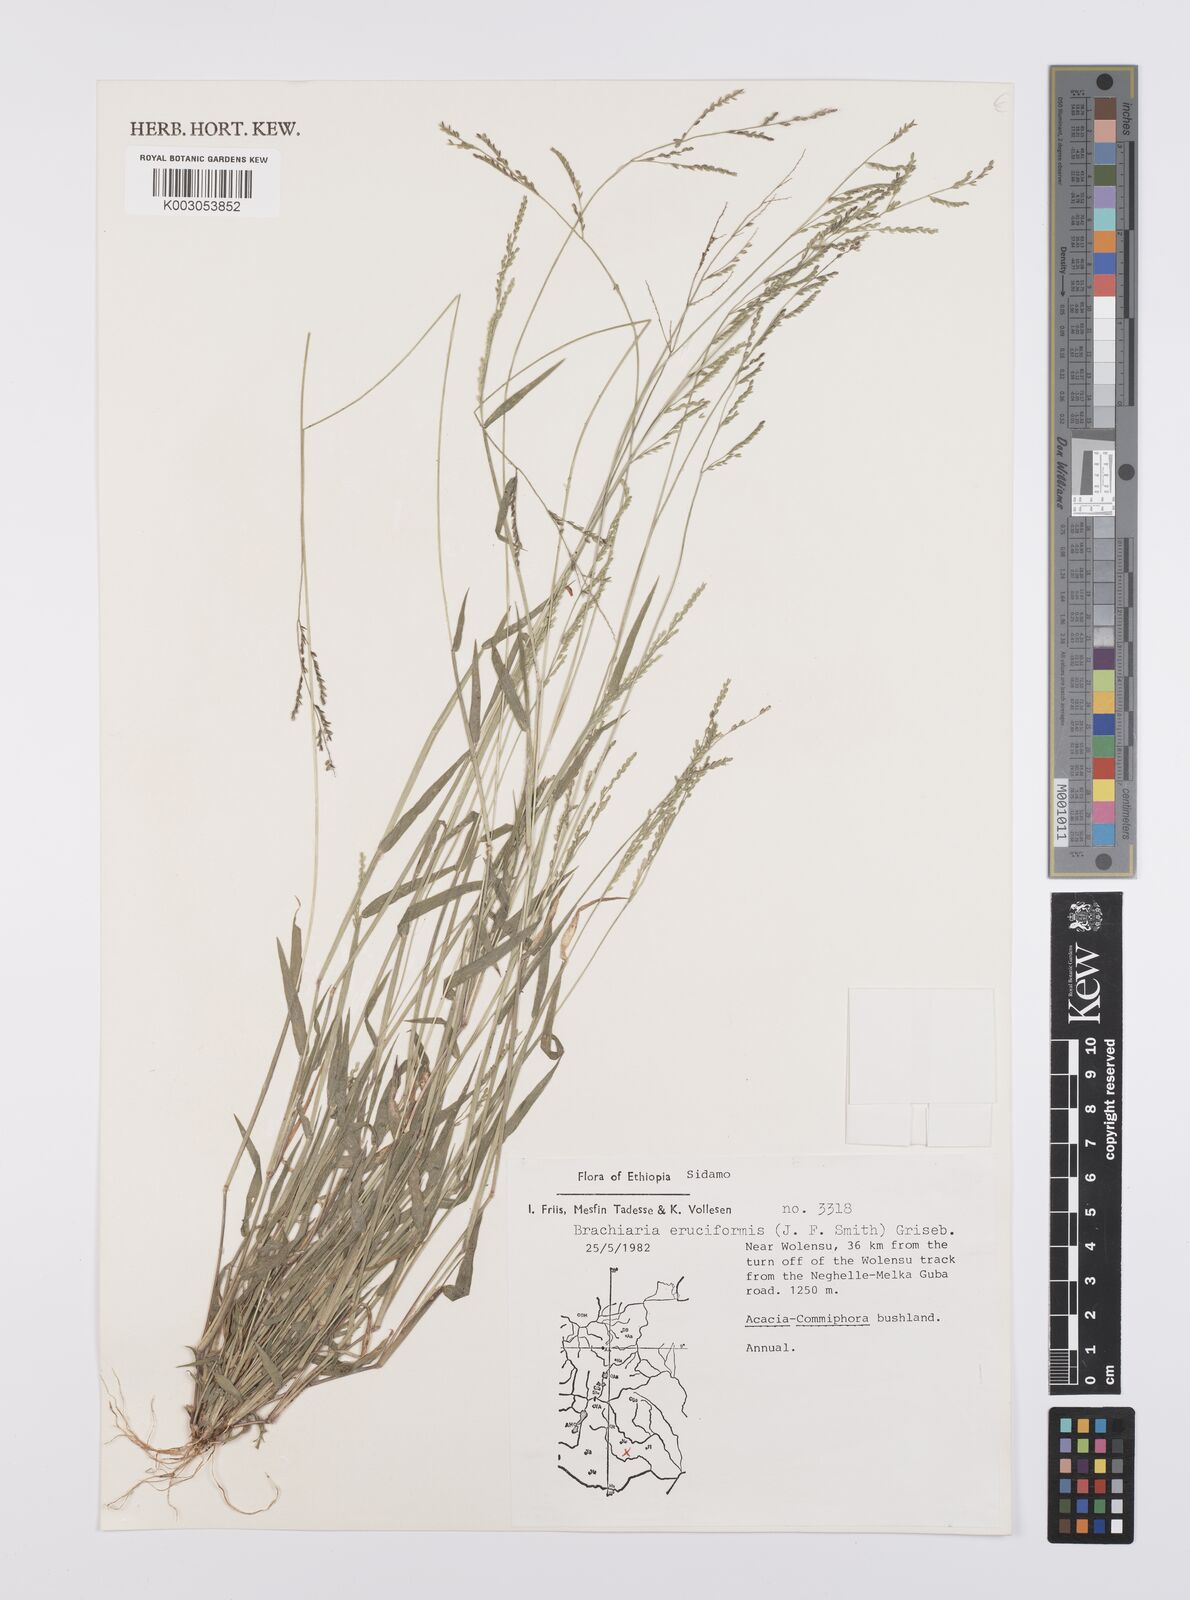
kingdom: Plantae
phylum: Tracheophyta
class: Liliopsida
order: Poales
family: Poaceae
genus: Moorochloa
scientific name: Moorochloa eruciformis
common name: Sweet signalgrass
